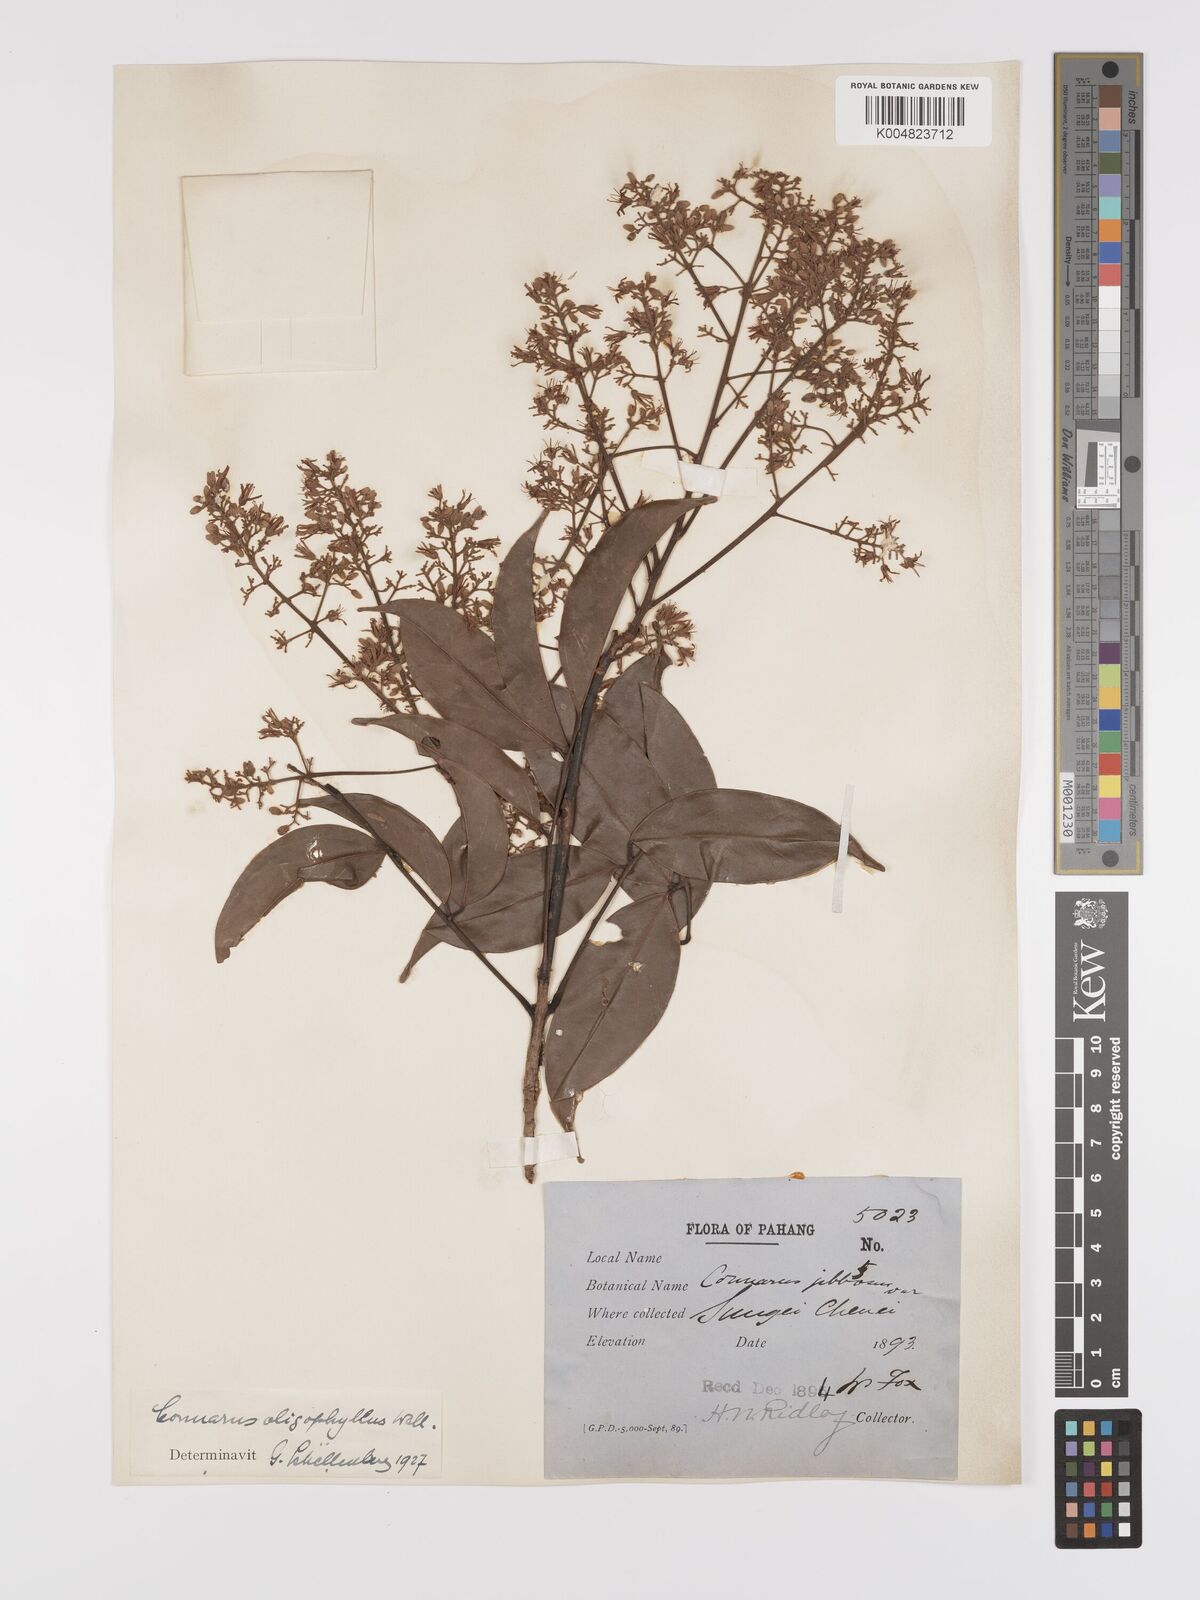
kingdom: Plantae
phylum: Tracheophyta
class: Magnoliopsida
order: Oxalidales
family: Connaraceae
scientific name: Connaraceae
